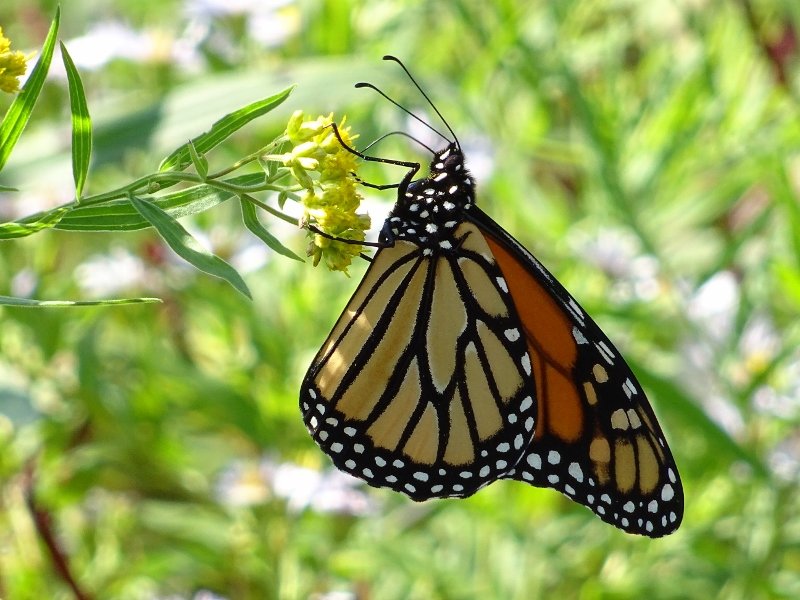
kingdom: Animalia
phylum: Arthropoda
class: Insecta
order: Lepidoptera
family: Nymphalidae
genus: Danaus
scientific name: Danaus plexippus
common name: Monarch
